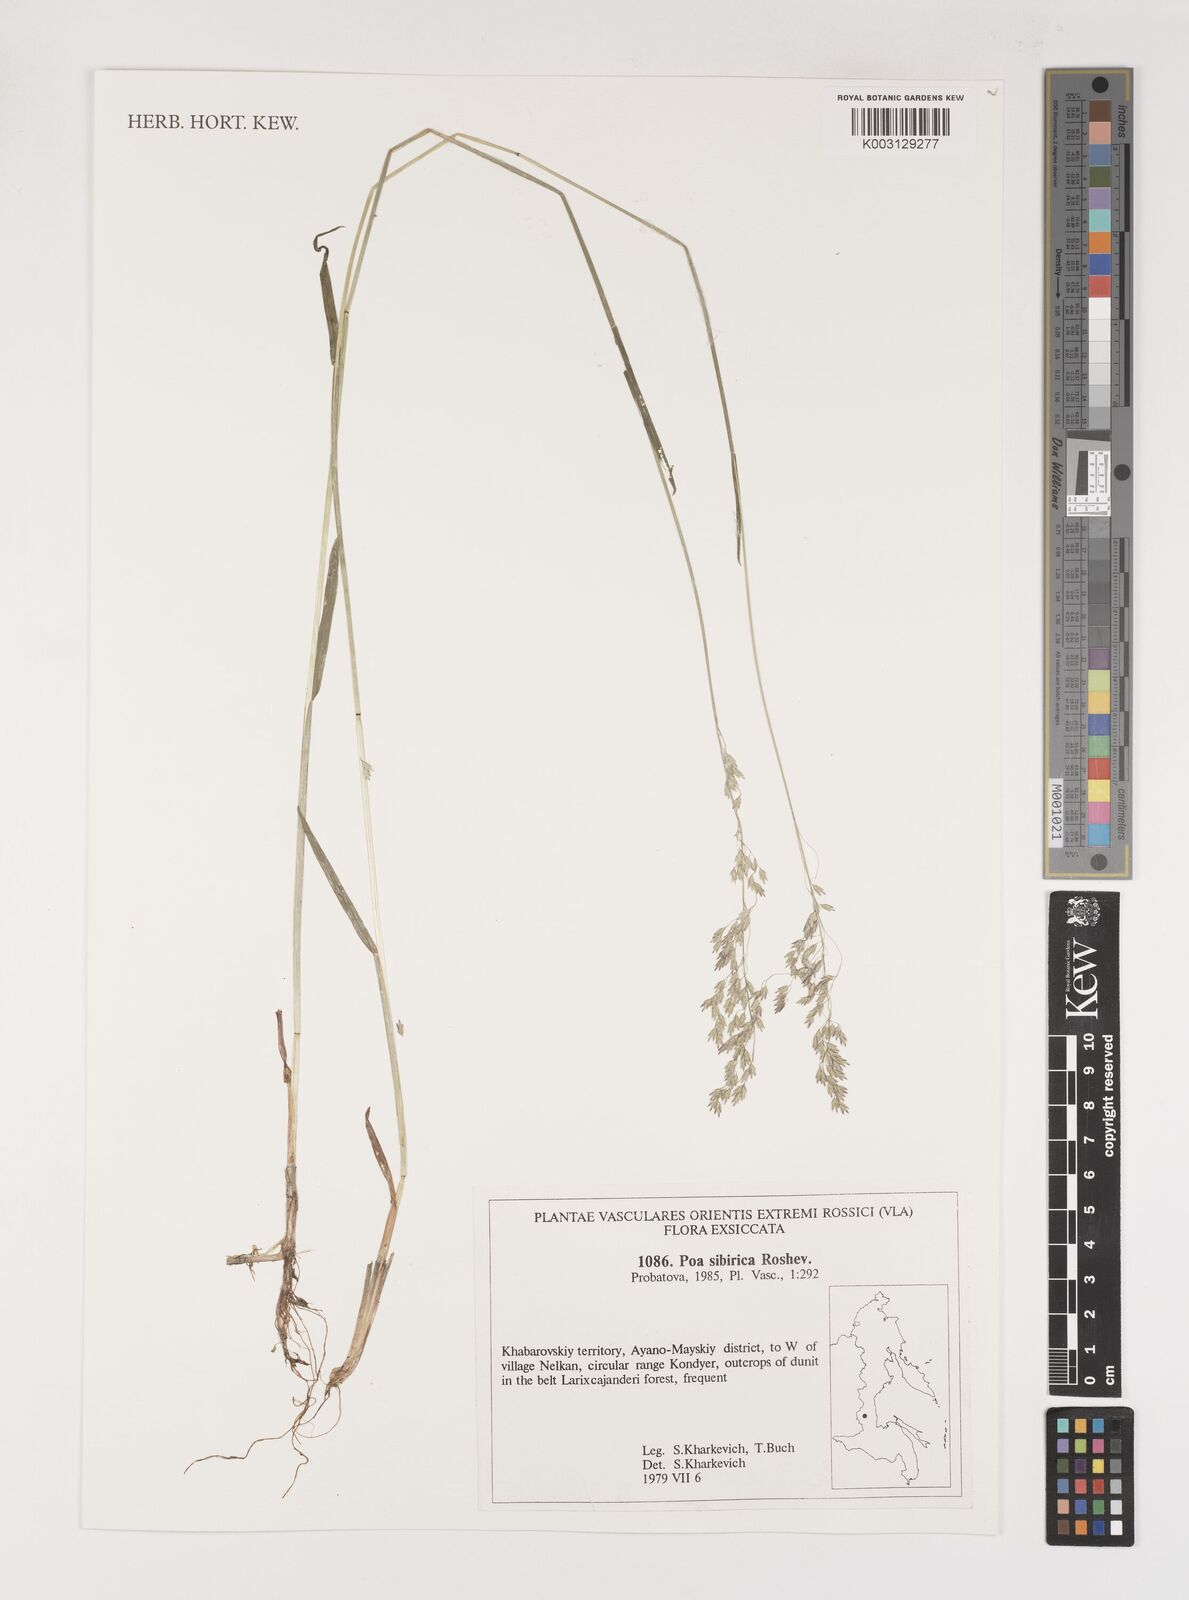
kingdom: Plantae
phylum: Tracheophyta
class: Liliopsida
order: Poales
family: Poaceae
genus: Poa
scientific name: Poa sibirica
